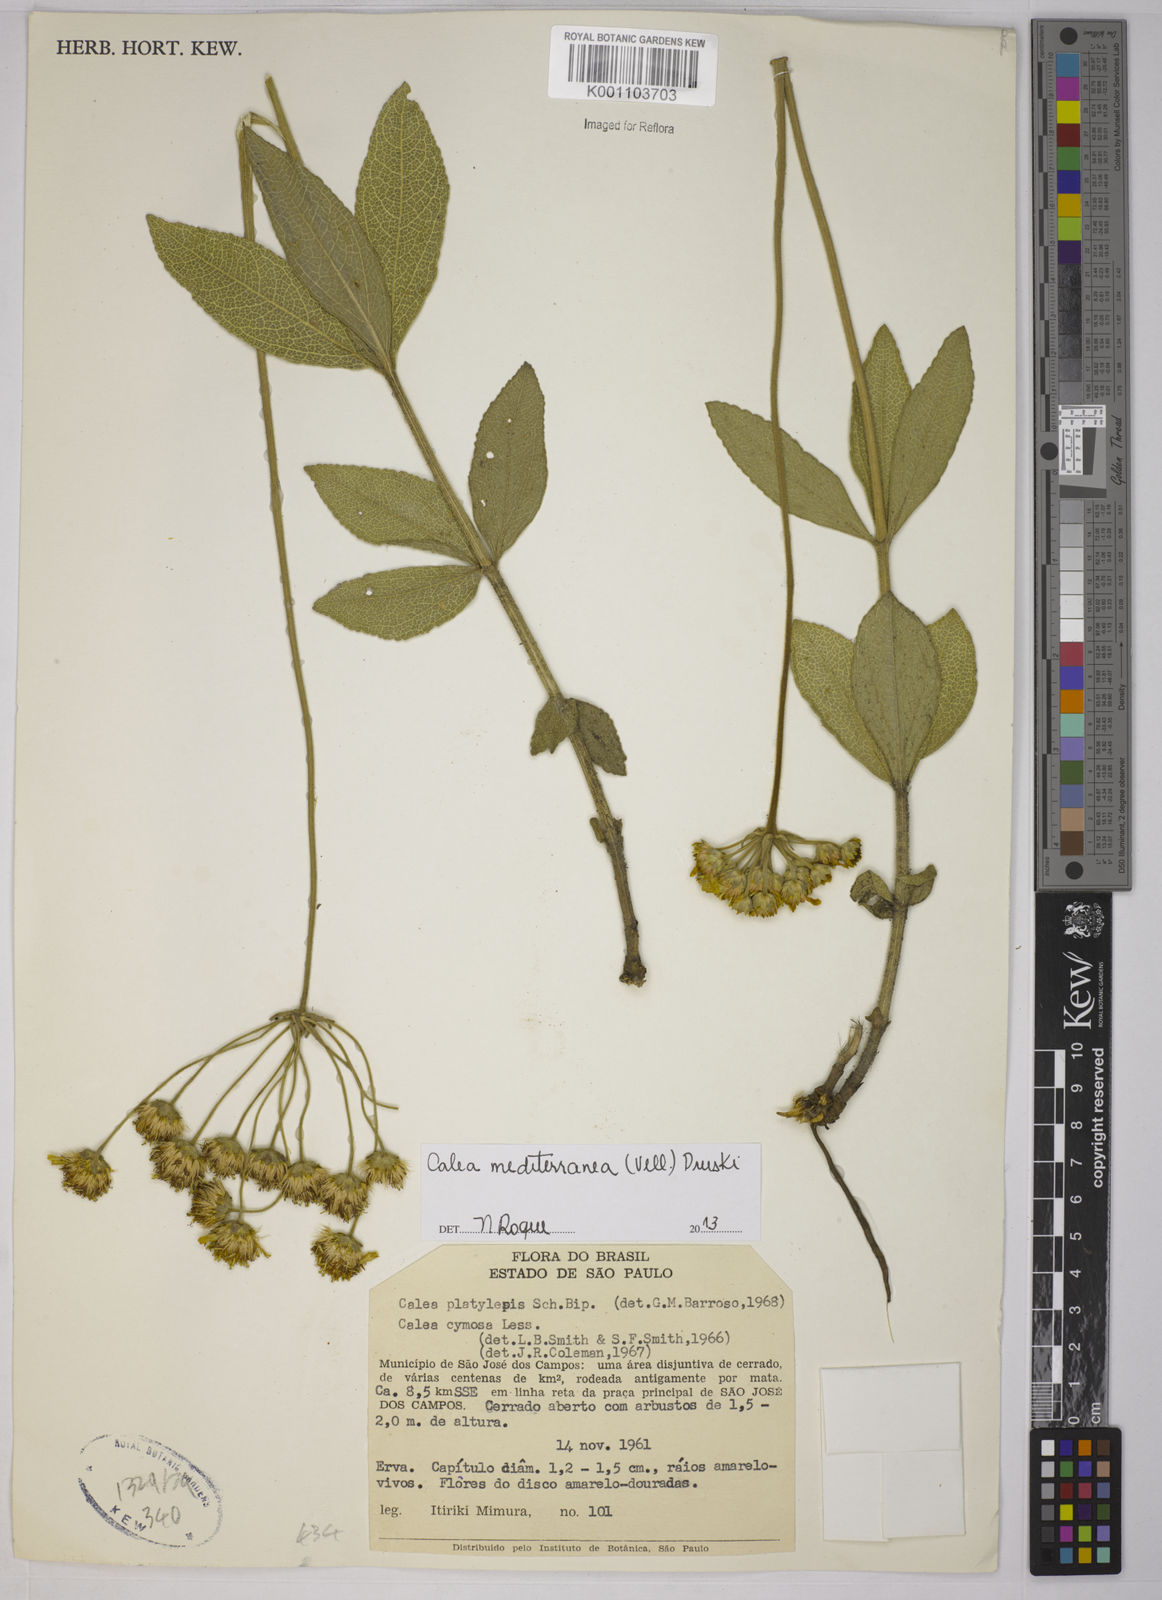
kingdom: Plantae
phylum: Tracheophyta
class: Magnoliopsida
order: Asterales
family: Asteraceae
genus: Calea
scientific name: Calea mediterranea
